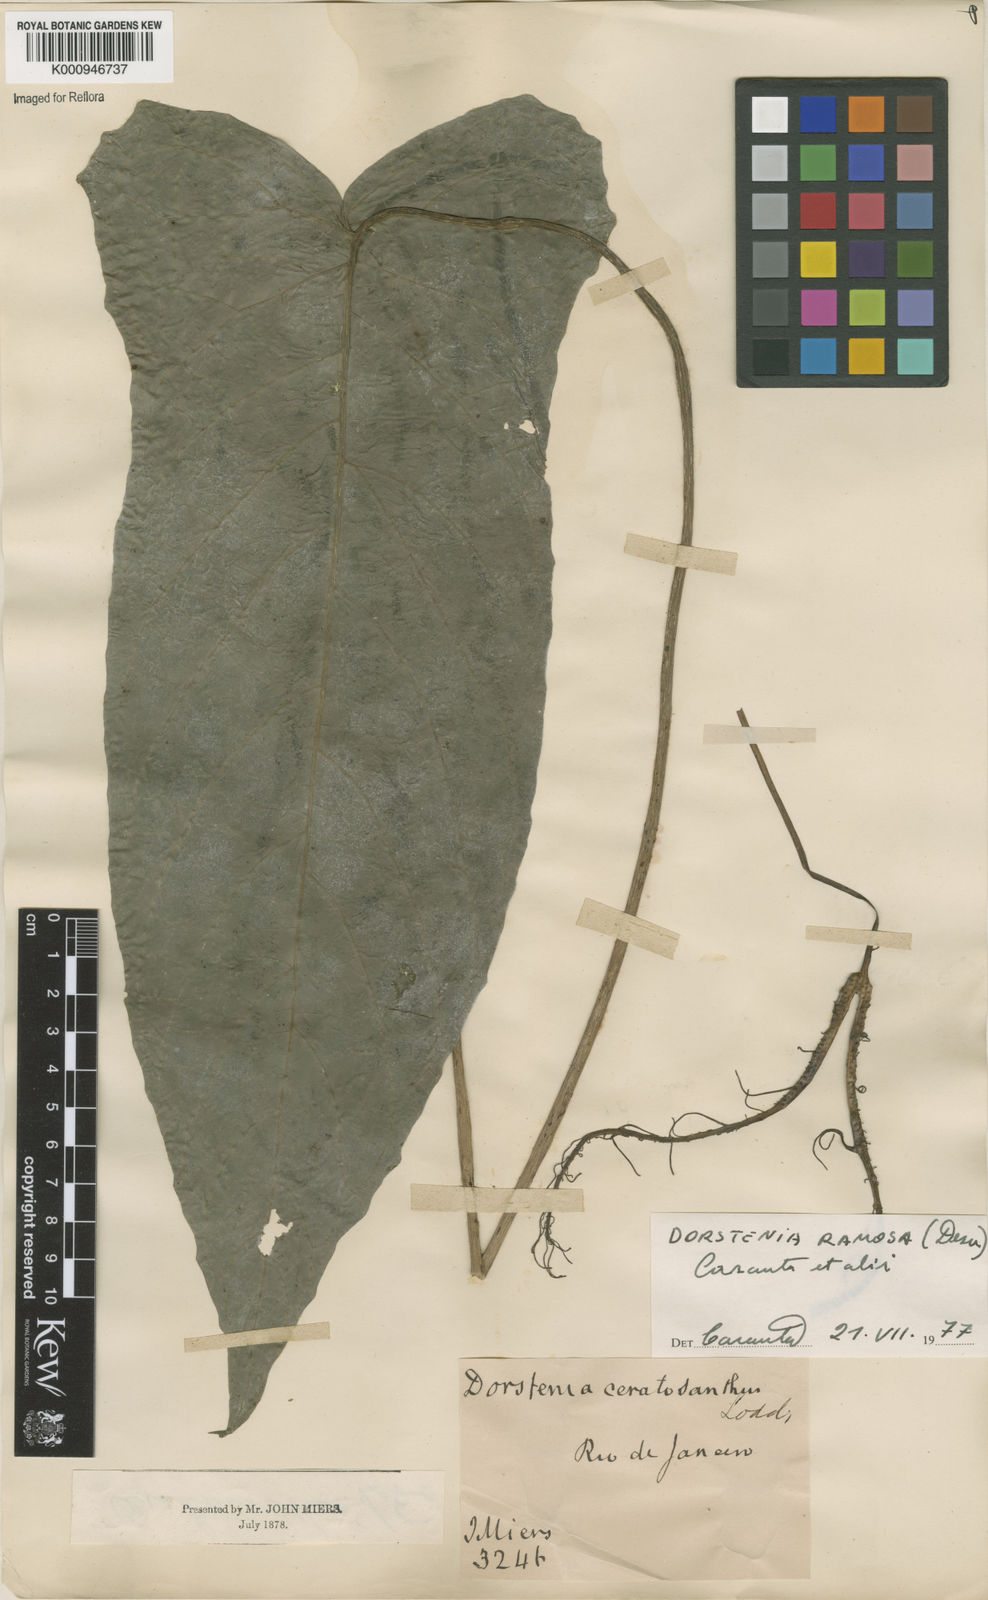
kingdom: Plantae
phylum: Tracheophyta
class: Magnoliopsida
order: Rosales
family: Moraceae
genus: Dorstenia
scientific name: Dorstenia ramosa
